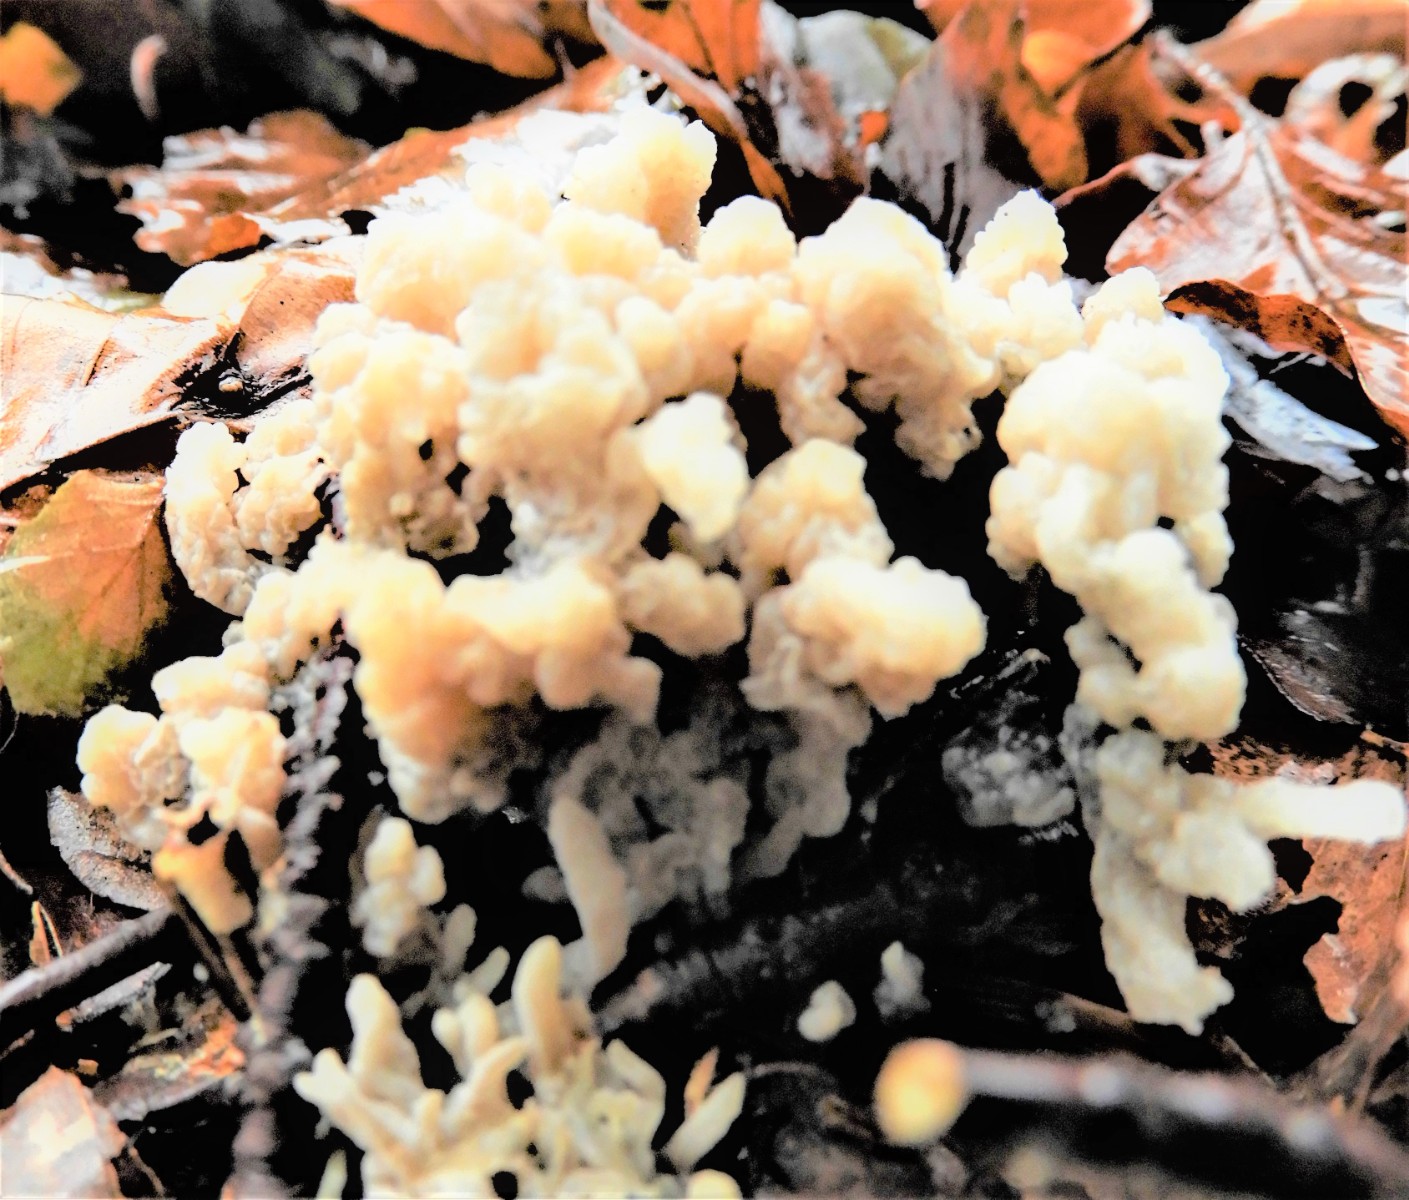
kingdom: Fungi
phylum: Ascomycota
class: Sordariomycetes
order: Sordariales
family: Helminthosphaeriaceae
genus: Helminthosphaeria
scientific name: Helminthosphaeria clavariarum
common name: trold-svampesnyltekerne
